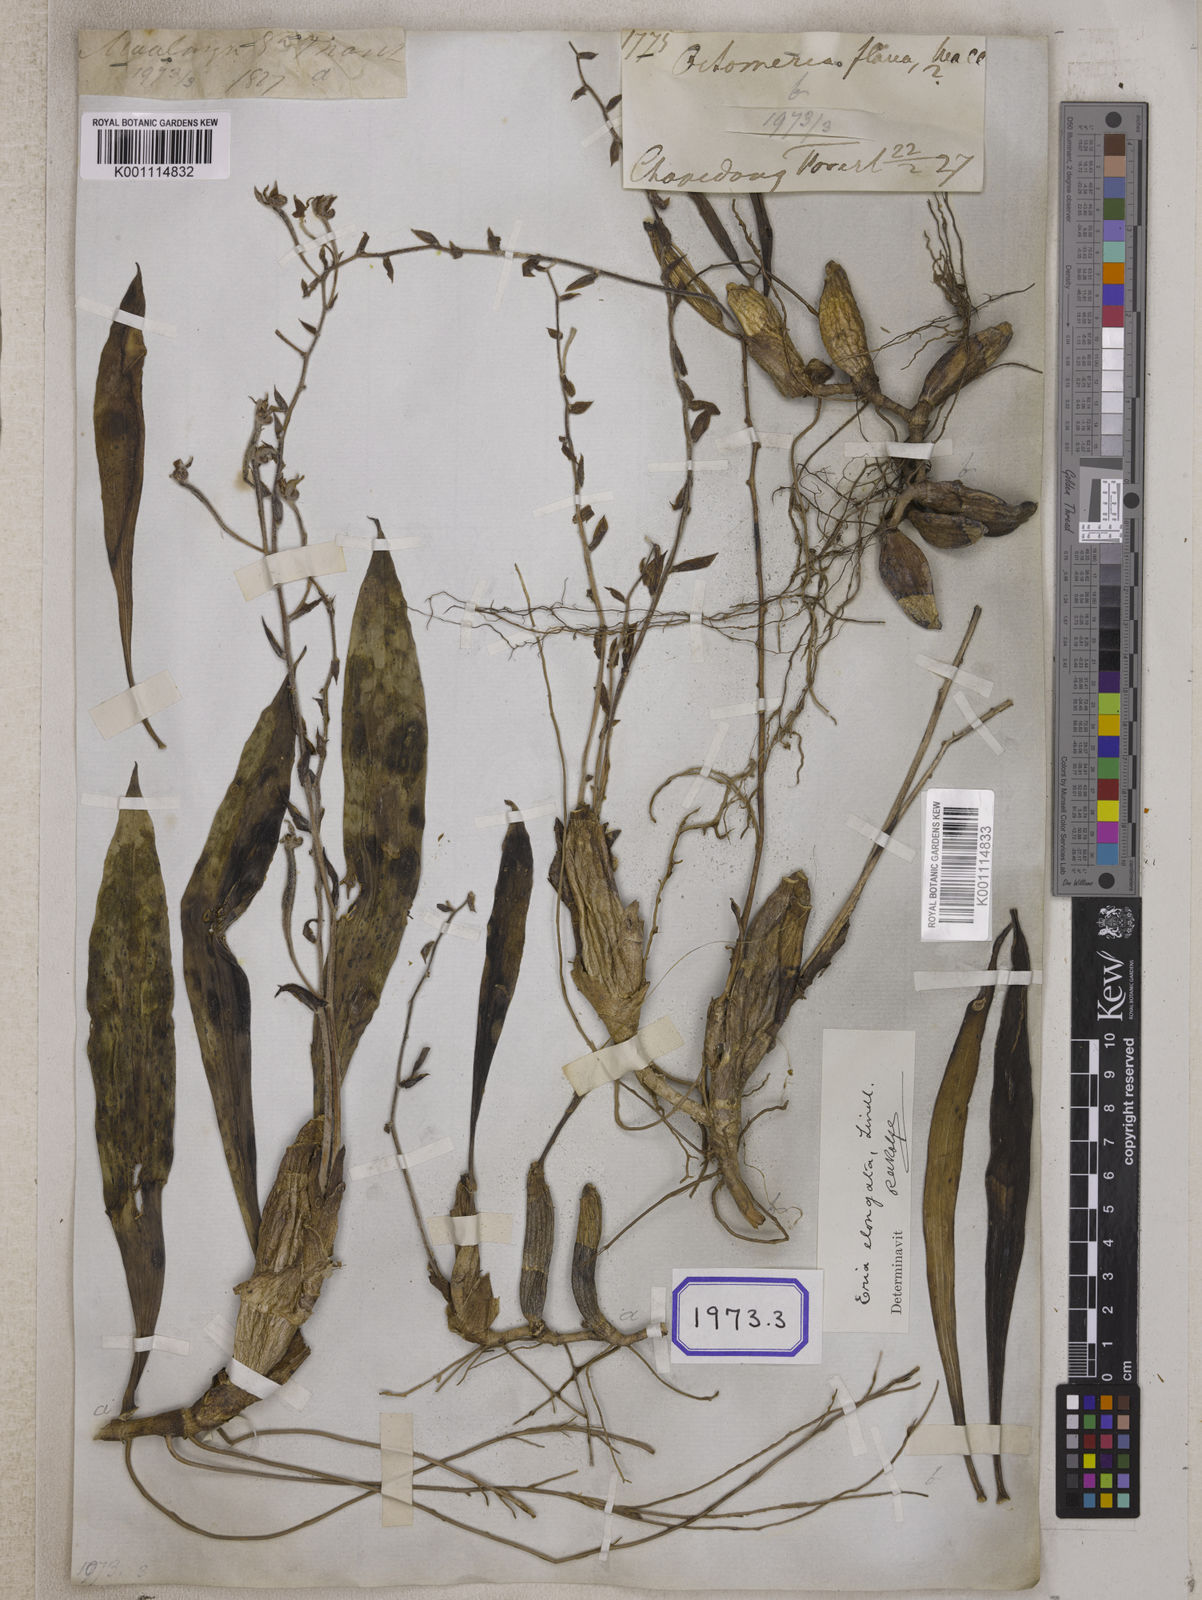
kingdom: Plantae
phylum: Tracheophyta
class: Liliopsida
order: Asparagales
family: Orchidaceae
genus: Dendrolirium
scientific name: Dendrolirium lasiopetalum
